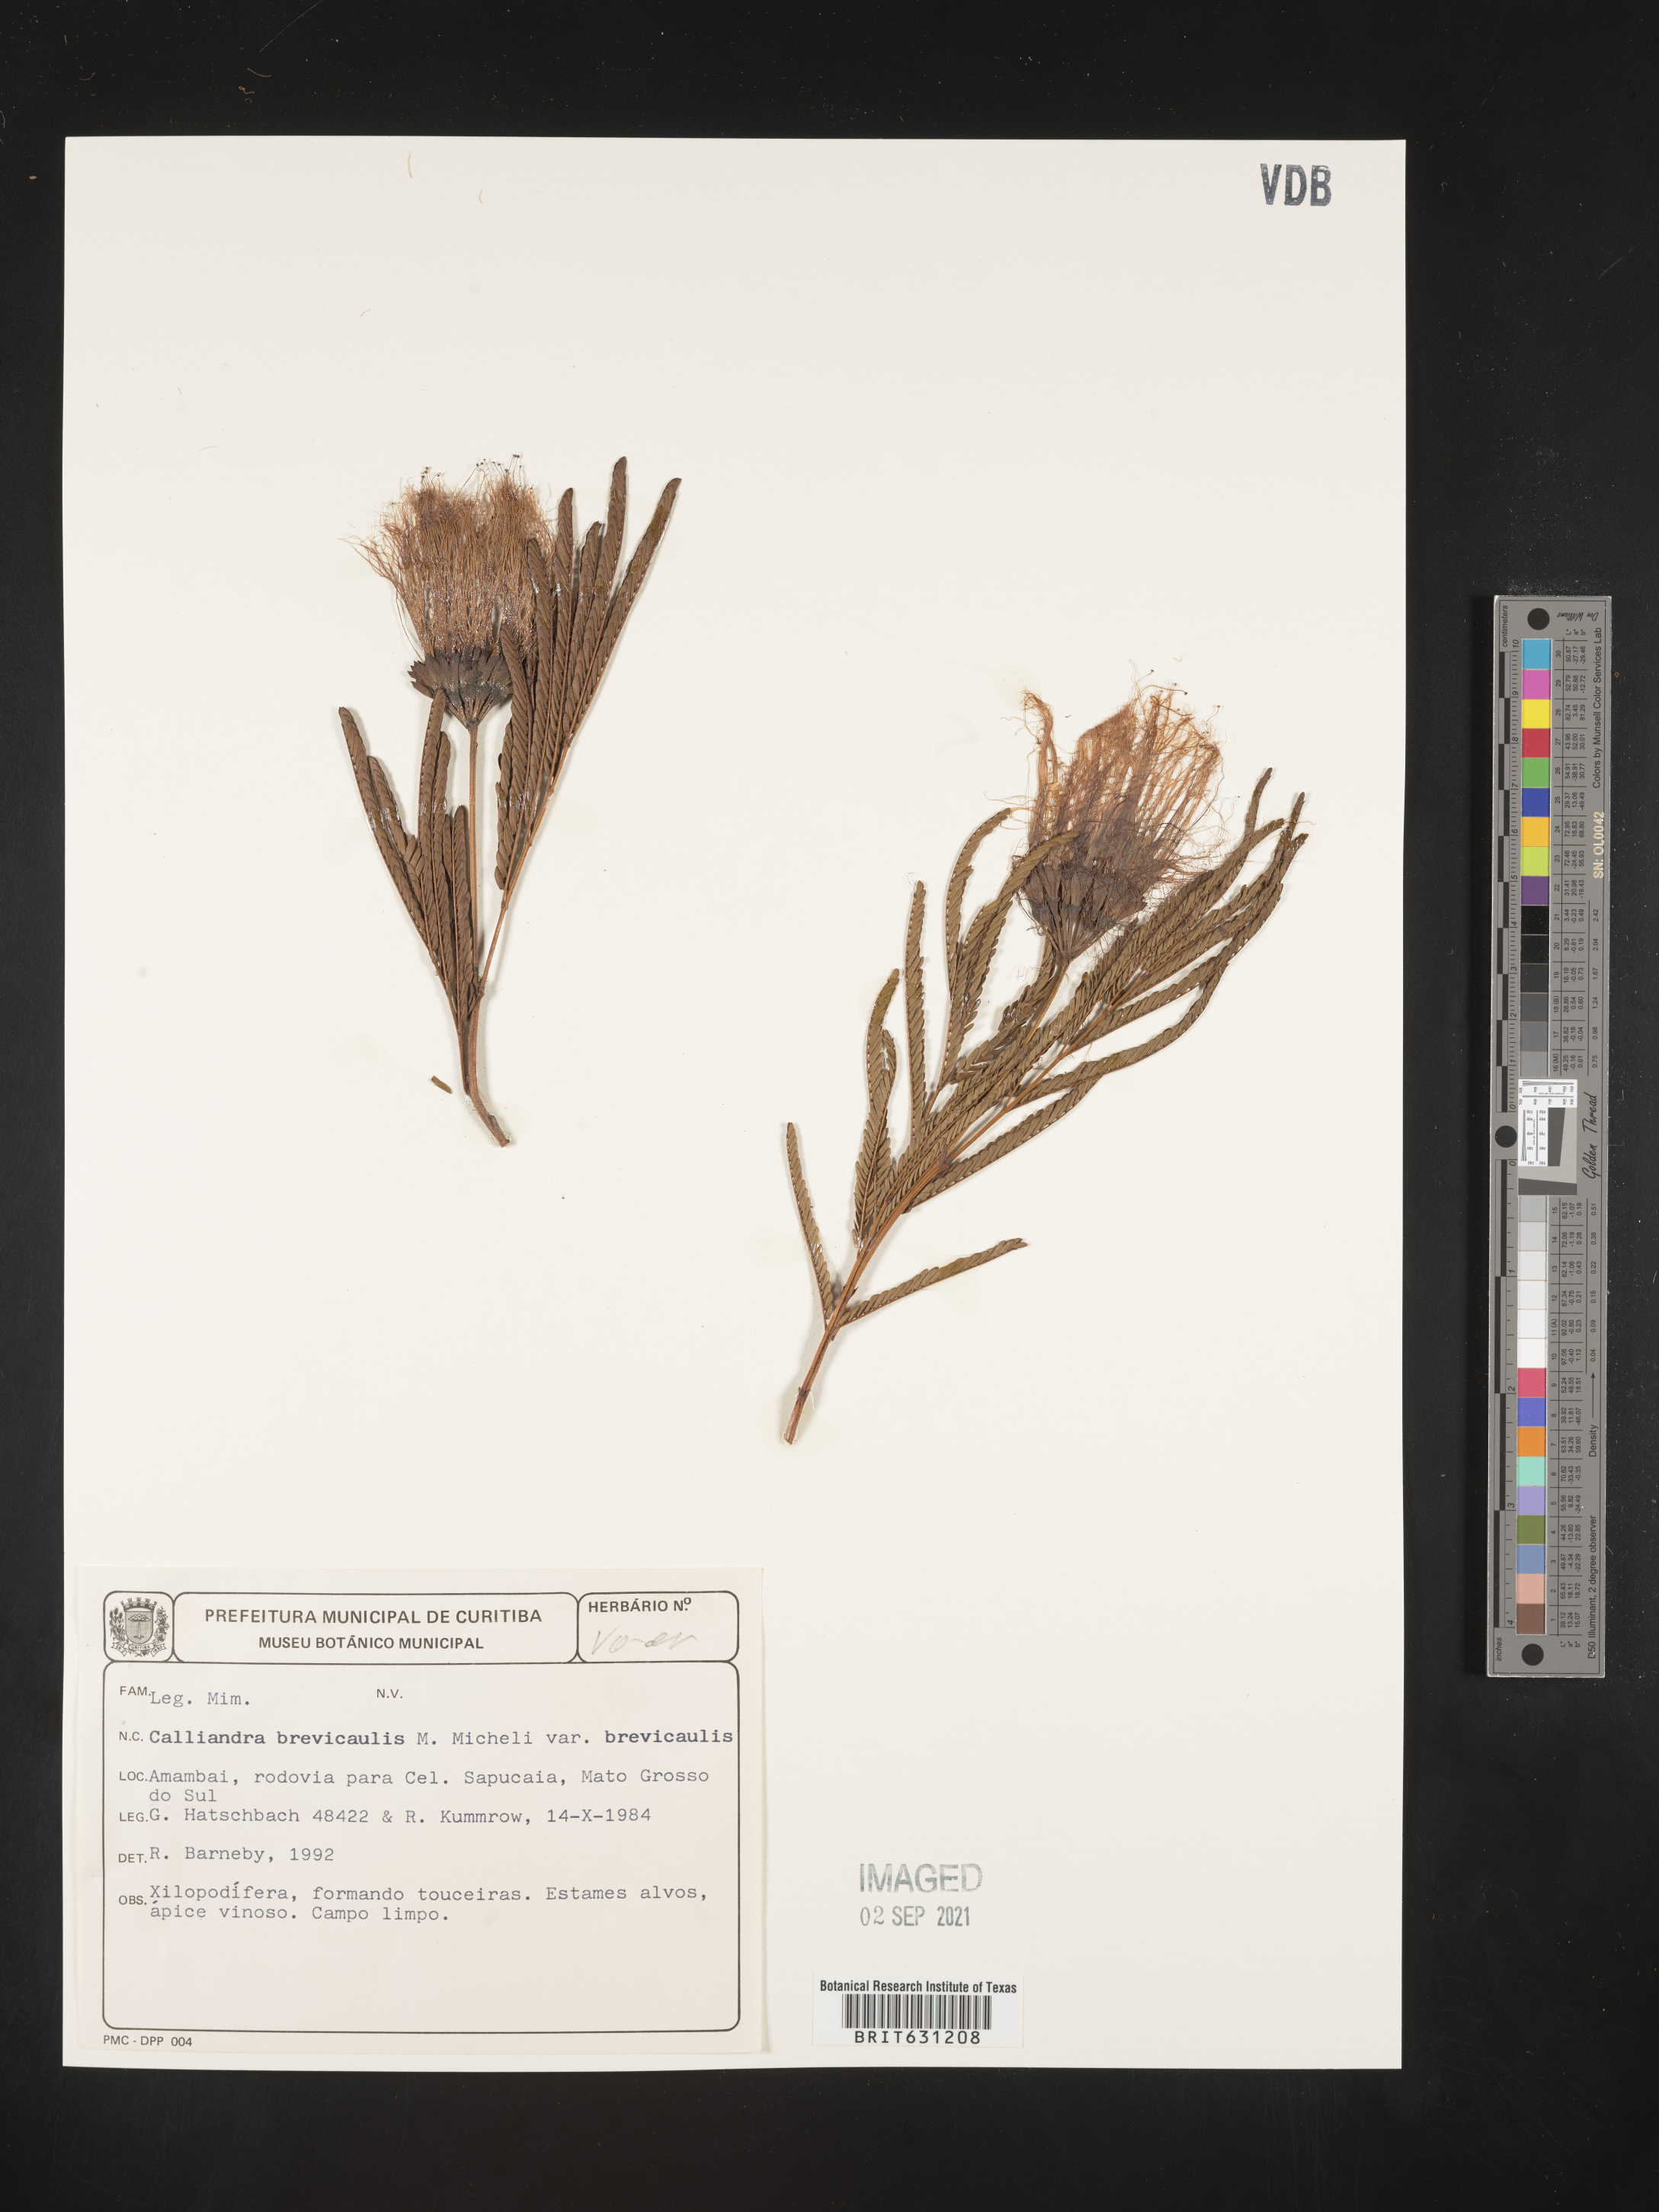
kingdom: Plantae
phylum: Tracheophyta
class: Magnoliopsida
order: Fabales
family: Fabaceae
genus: Calliandra
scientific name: Calliandra brevicaulis
